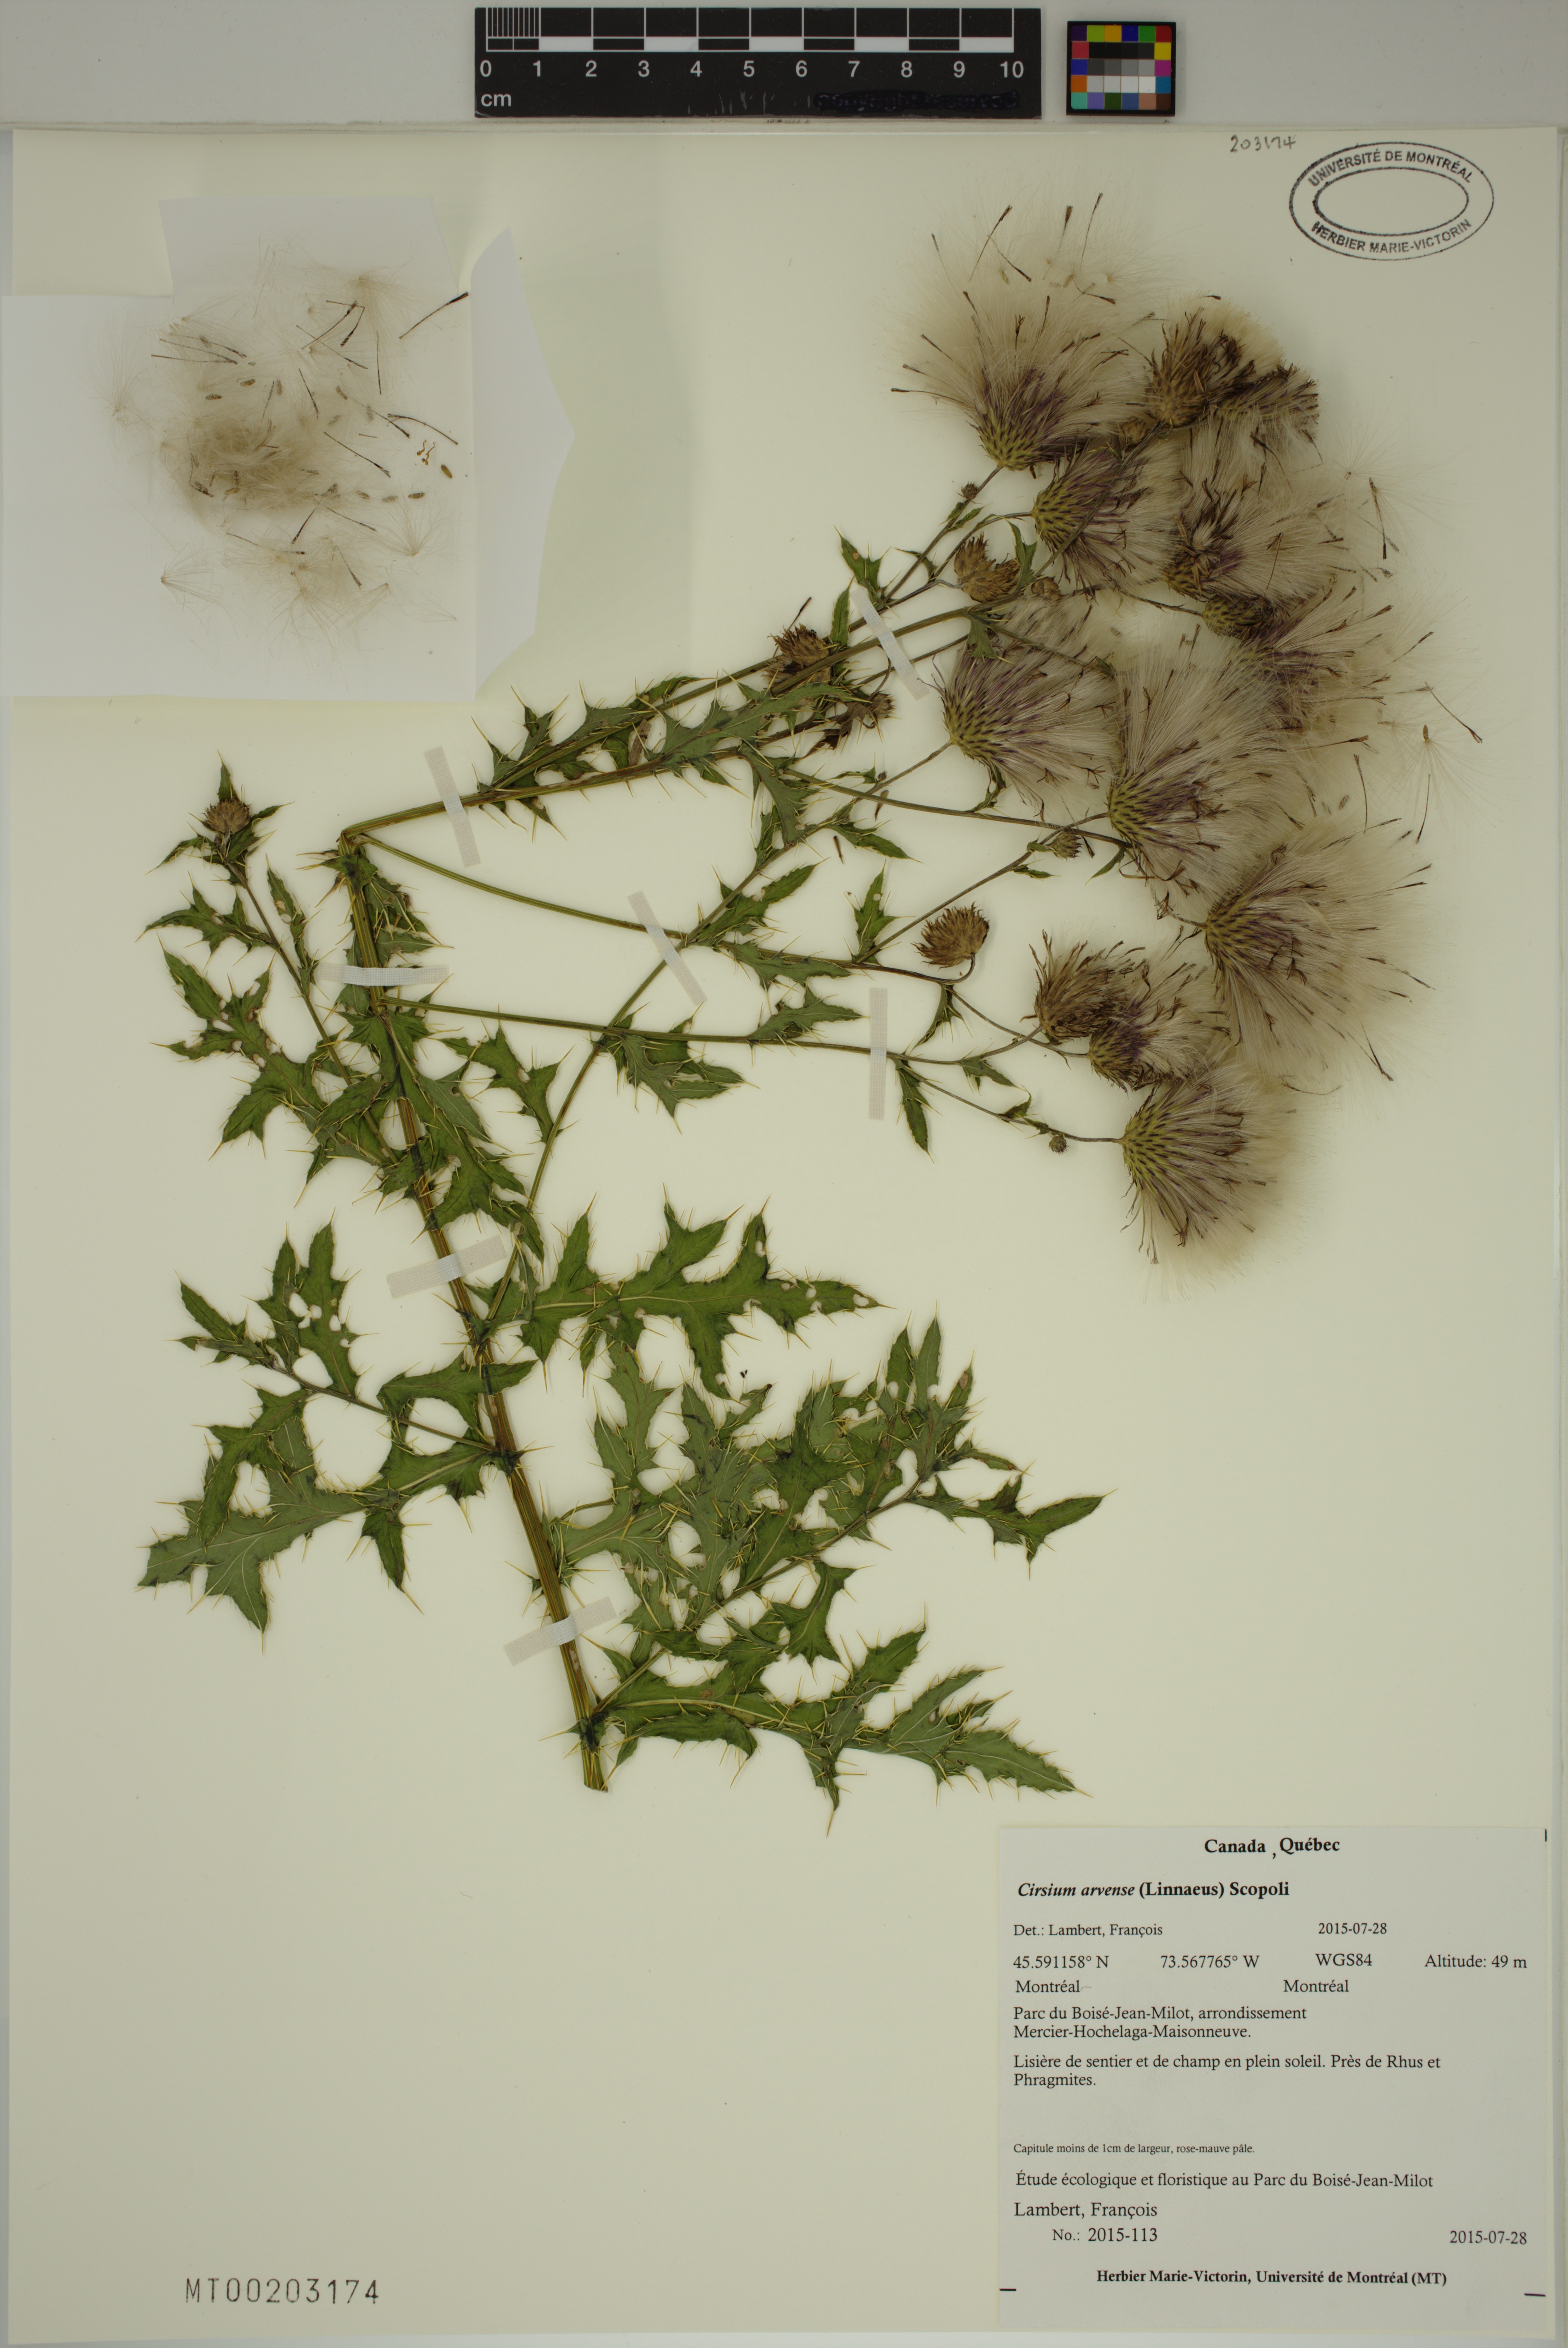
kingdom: Plantae
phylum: Tracheophyta
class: Magnoliopsida
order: Asterales
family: Asteraceae
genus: Cirsium
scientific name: Cirsium arvense
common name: Creeping thistle
